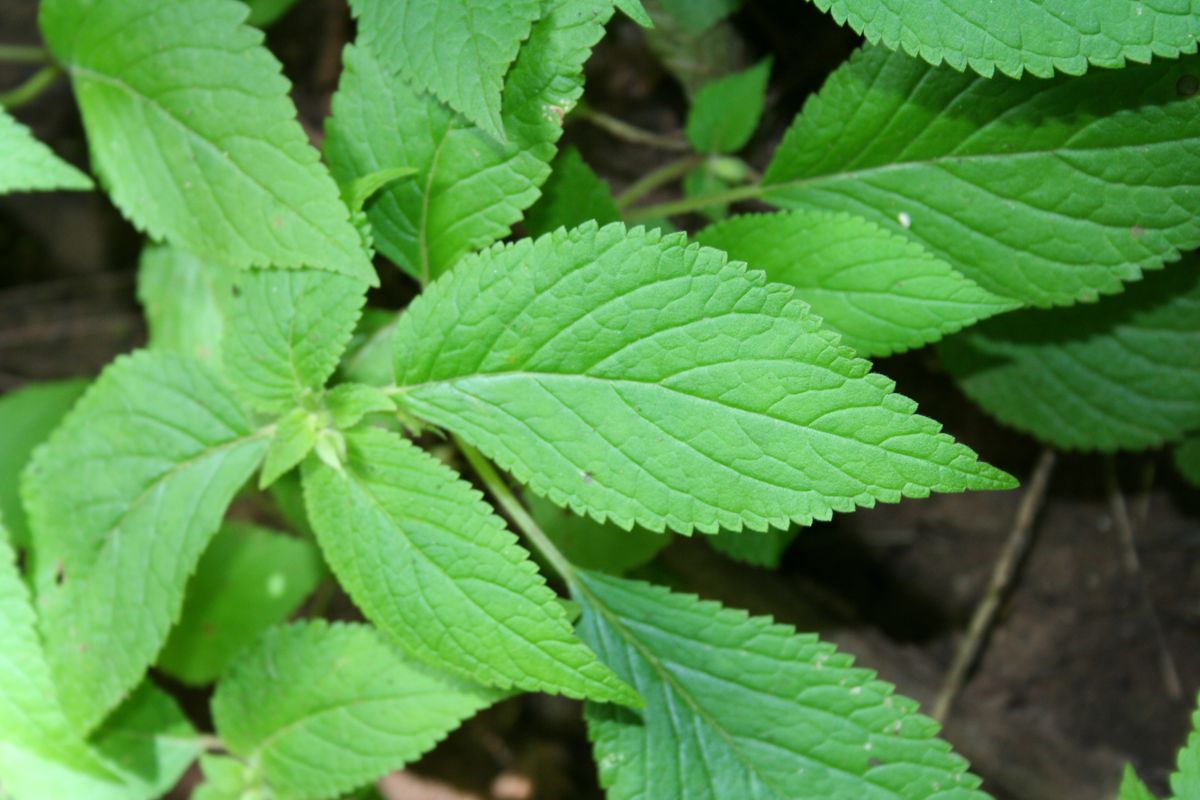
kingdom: Plantae
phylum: Tracheophyta
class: Magnoliopsida
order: Lamiales
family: Gesneriaceae
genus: Achimenes
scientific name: Achimenes misera
